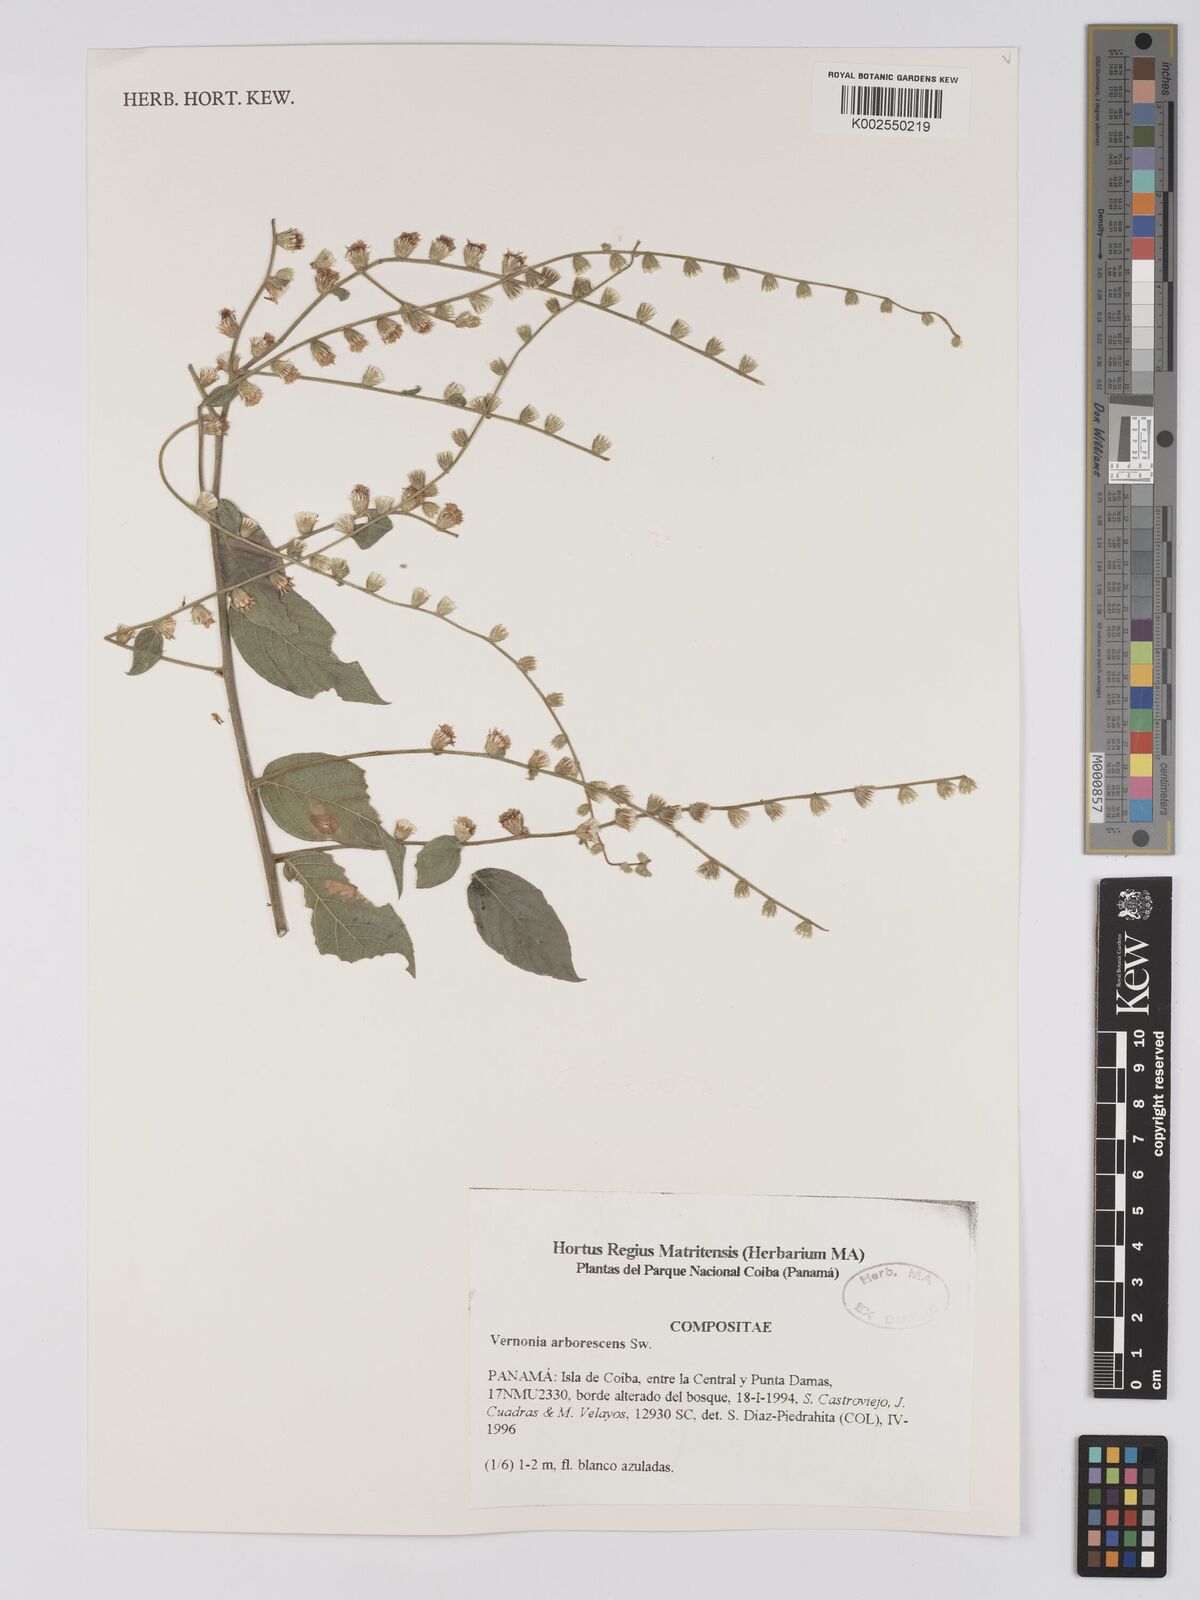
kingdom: Plantae
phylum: Tracheophyta
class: Magnoliopsida
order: Asterales
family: Asteraceae
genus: Lepidaploa
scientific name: Lepidaploa arborescens
